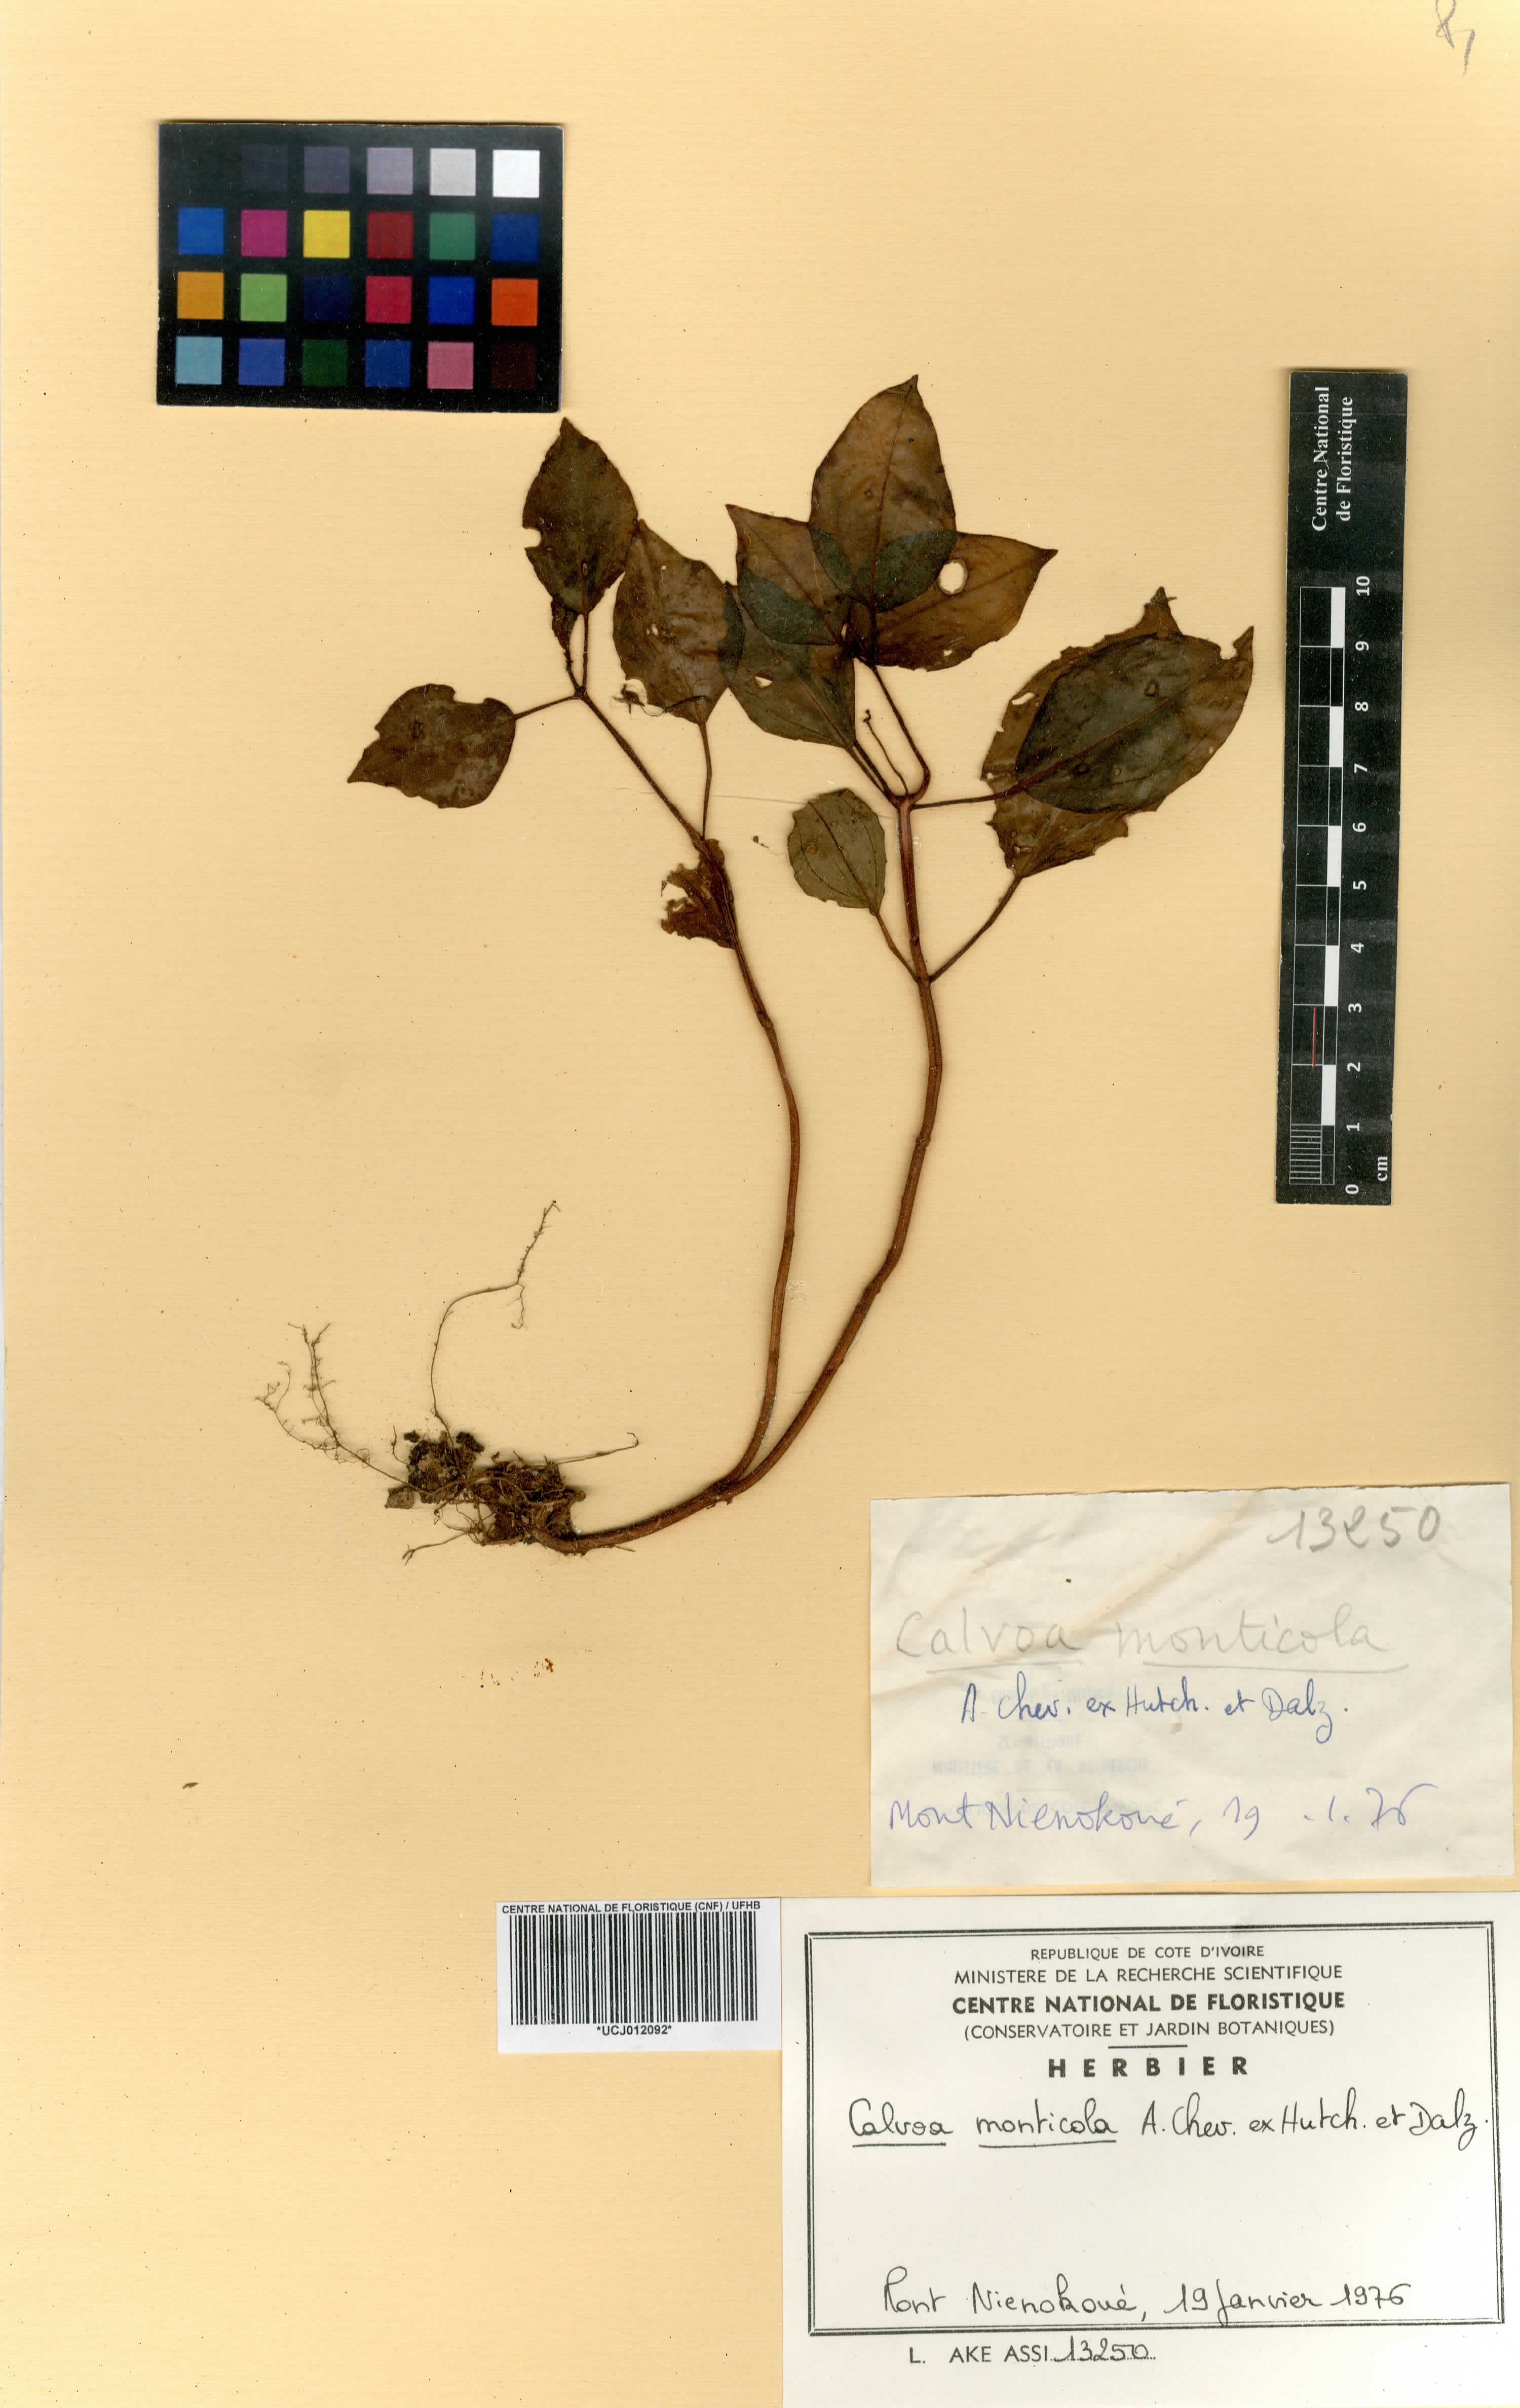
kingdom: Plantae
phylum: Tracheophyta
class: Magnoliopsida
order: Myrtales
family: Melastomataceae
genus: Calvoa
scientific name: Calvoa monticola
